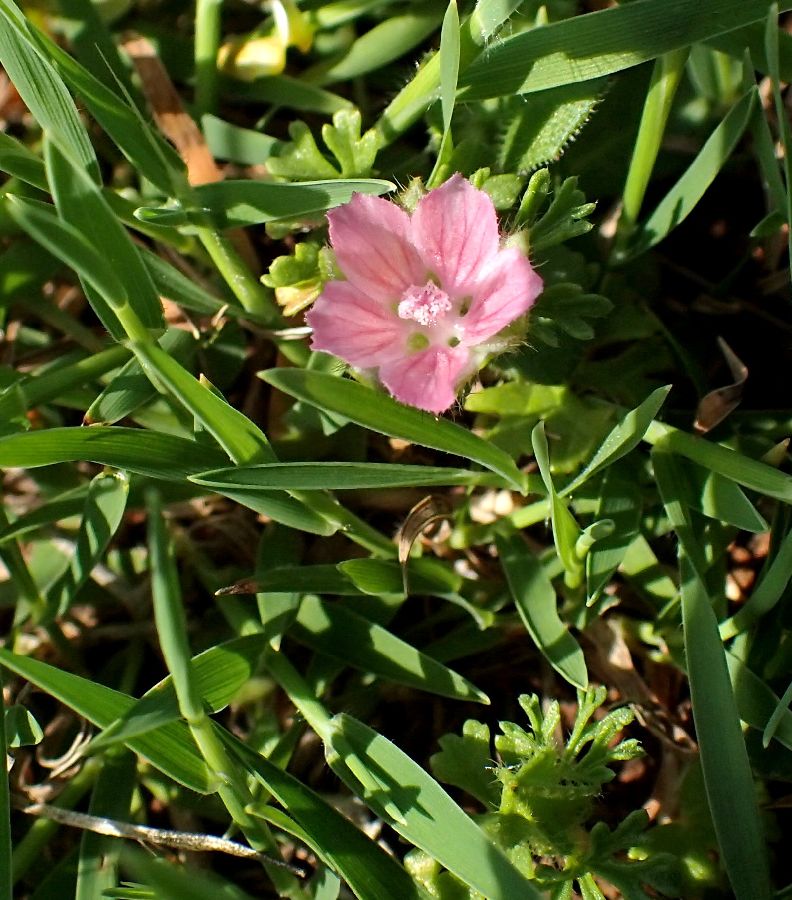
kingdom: Plantae
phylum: Tracheophyta
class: Magnoliopsida
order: Malvales
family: Malvaceae
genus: Malva
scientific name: Malva aegyptia
